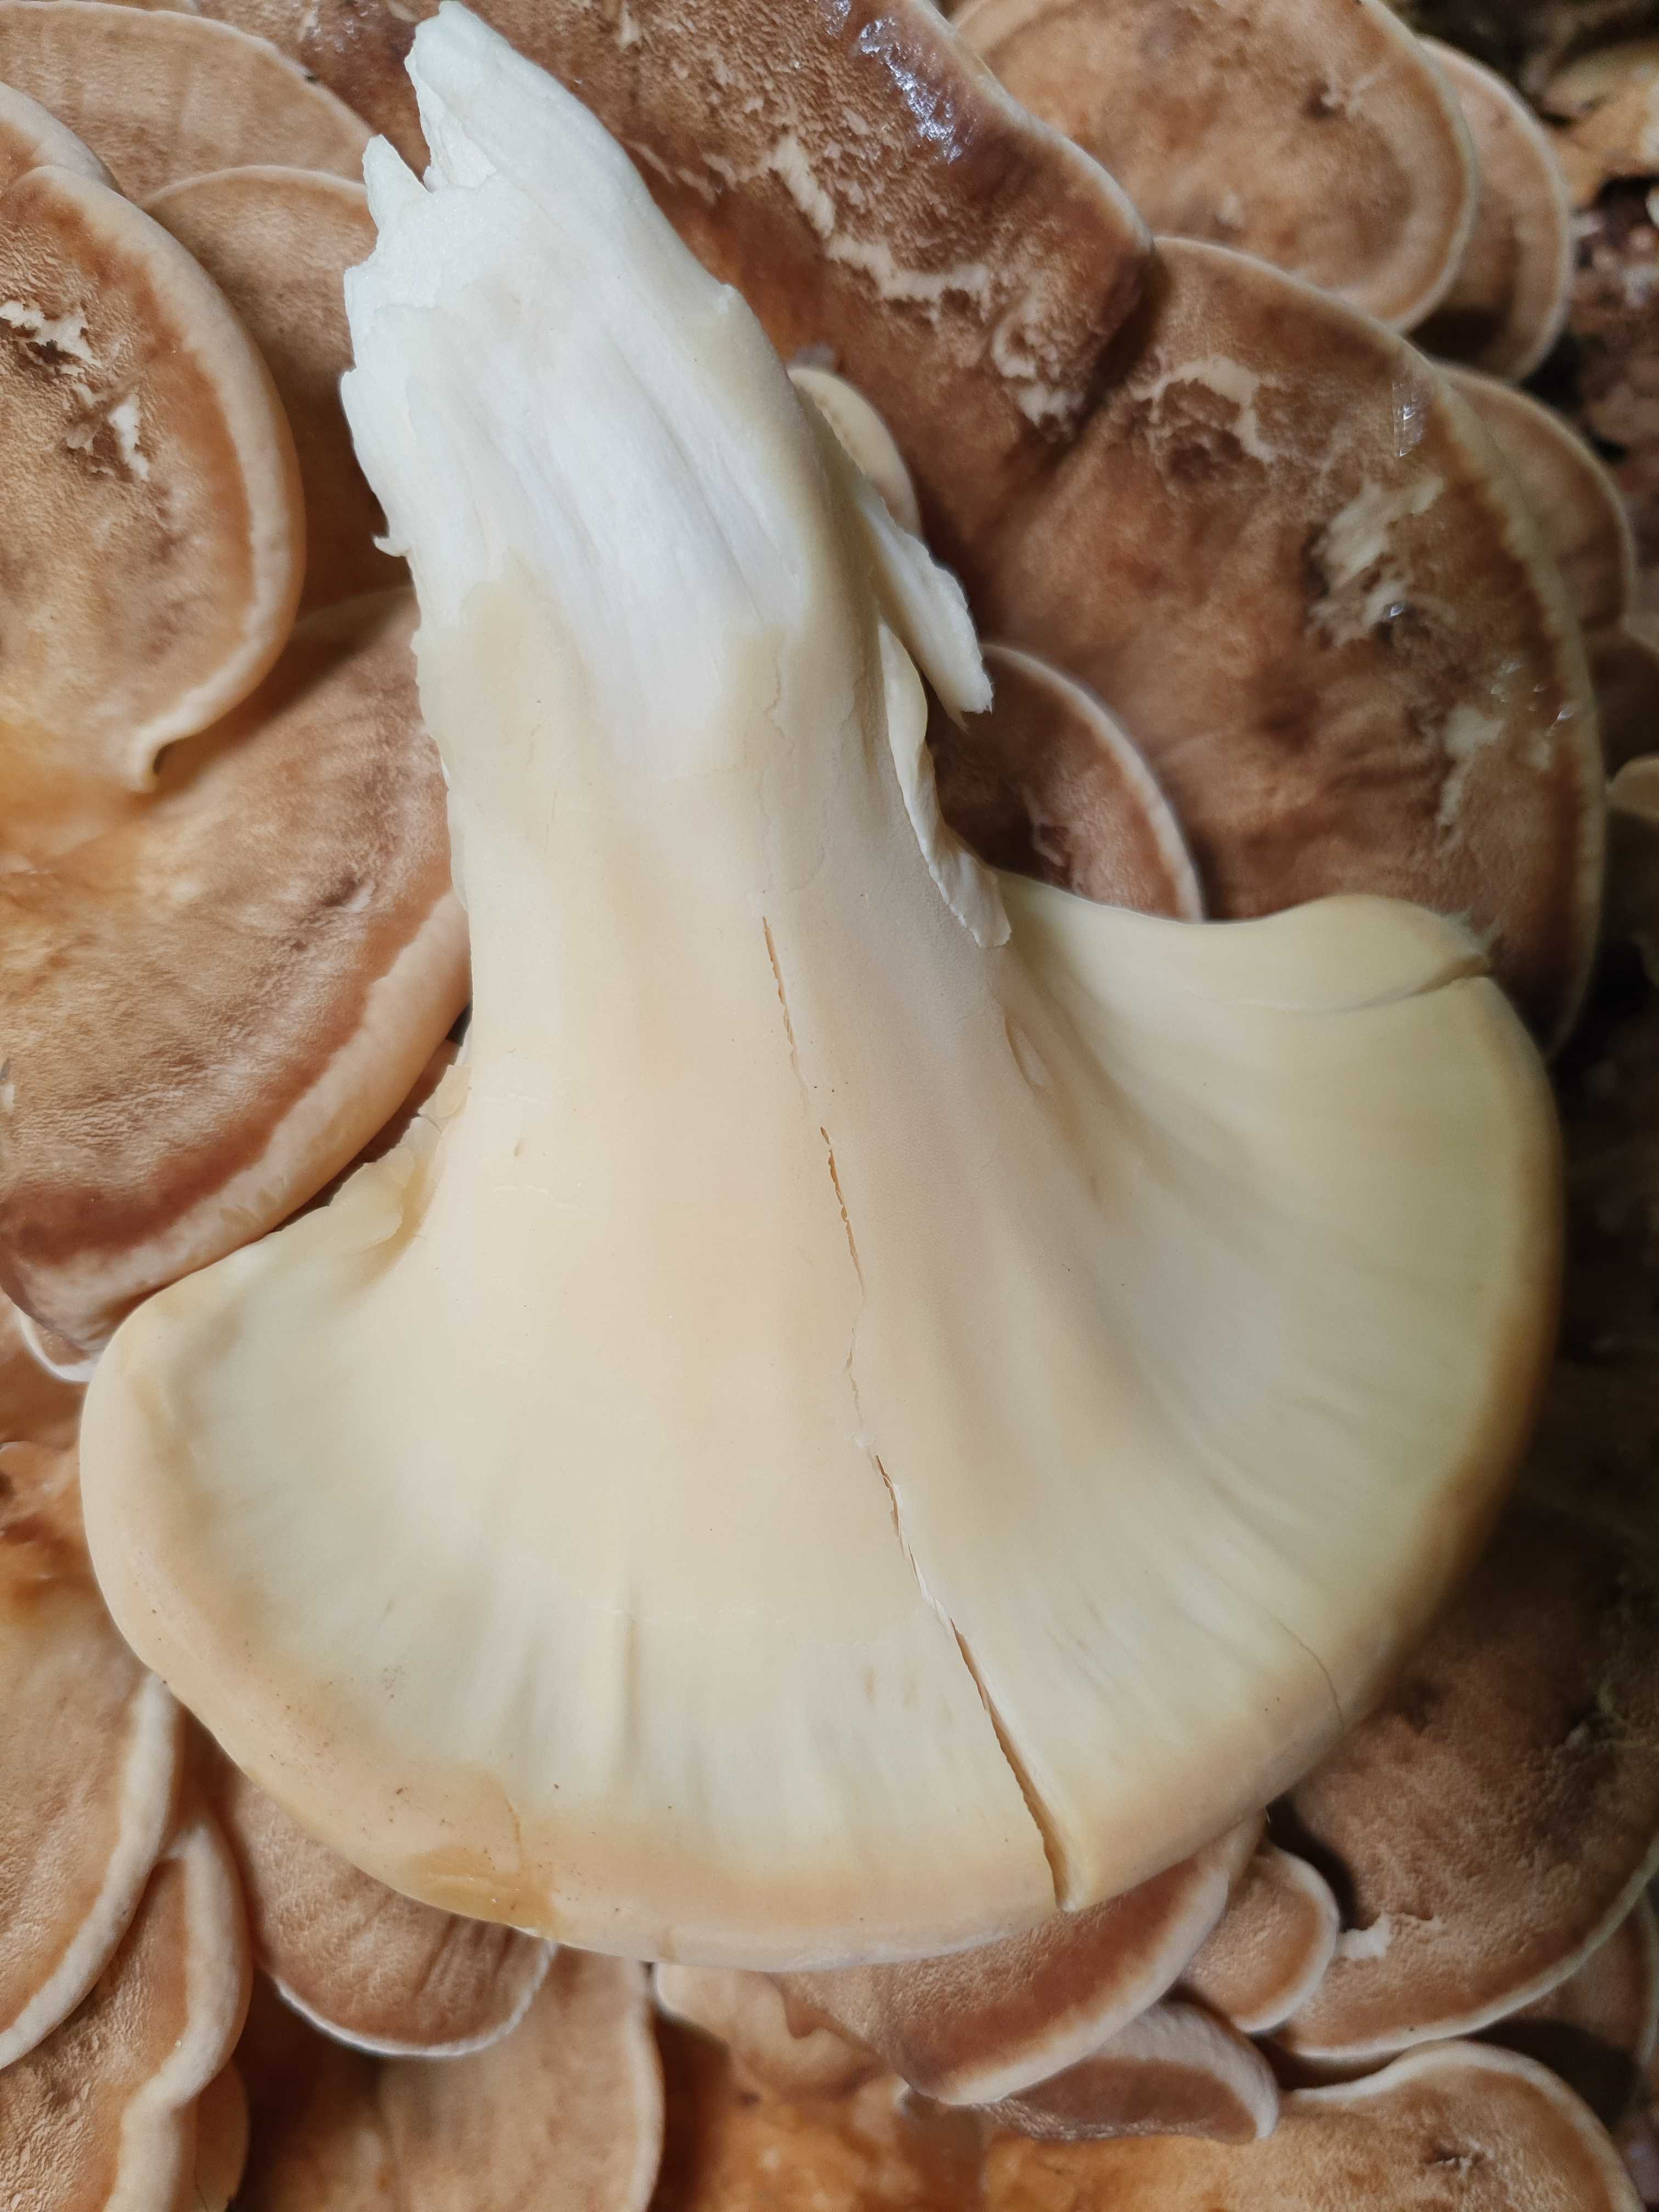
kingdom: Fungi
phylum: Basidiomycota
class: Agaricomycetes
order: Polyporales
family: Meripilaceae
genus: Meripilus
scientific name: Meripilus giganteus
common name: kæmpeporesvamp
